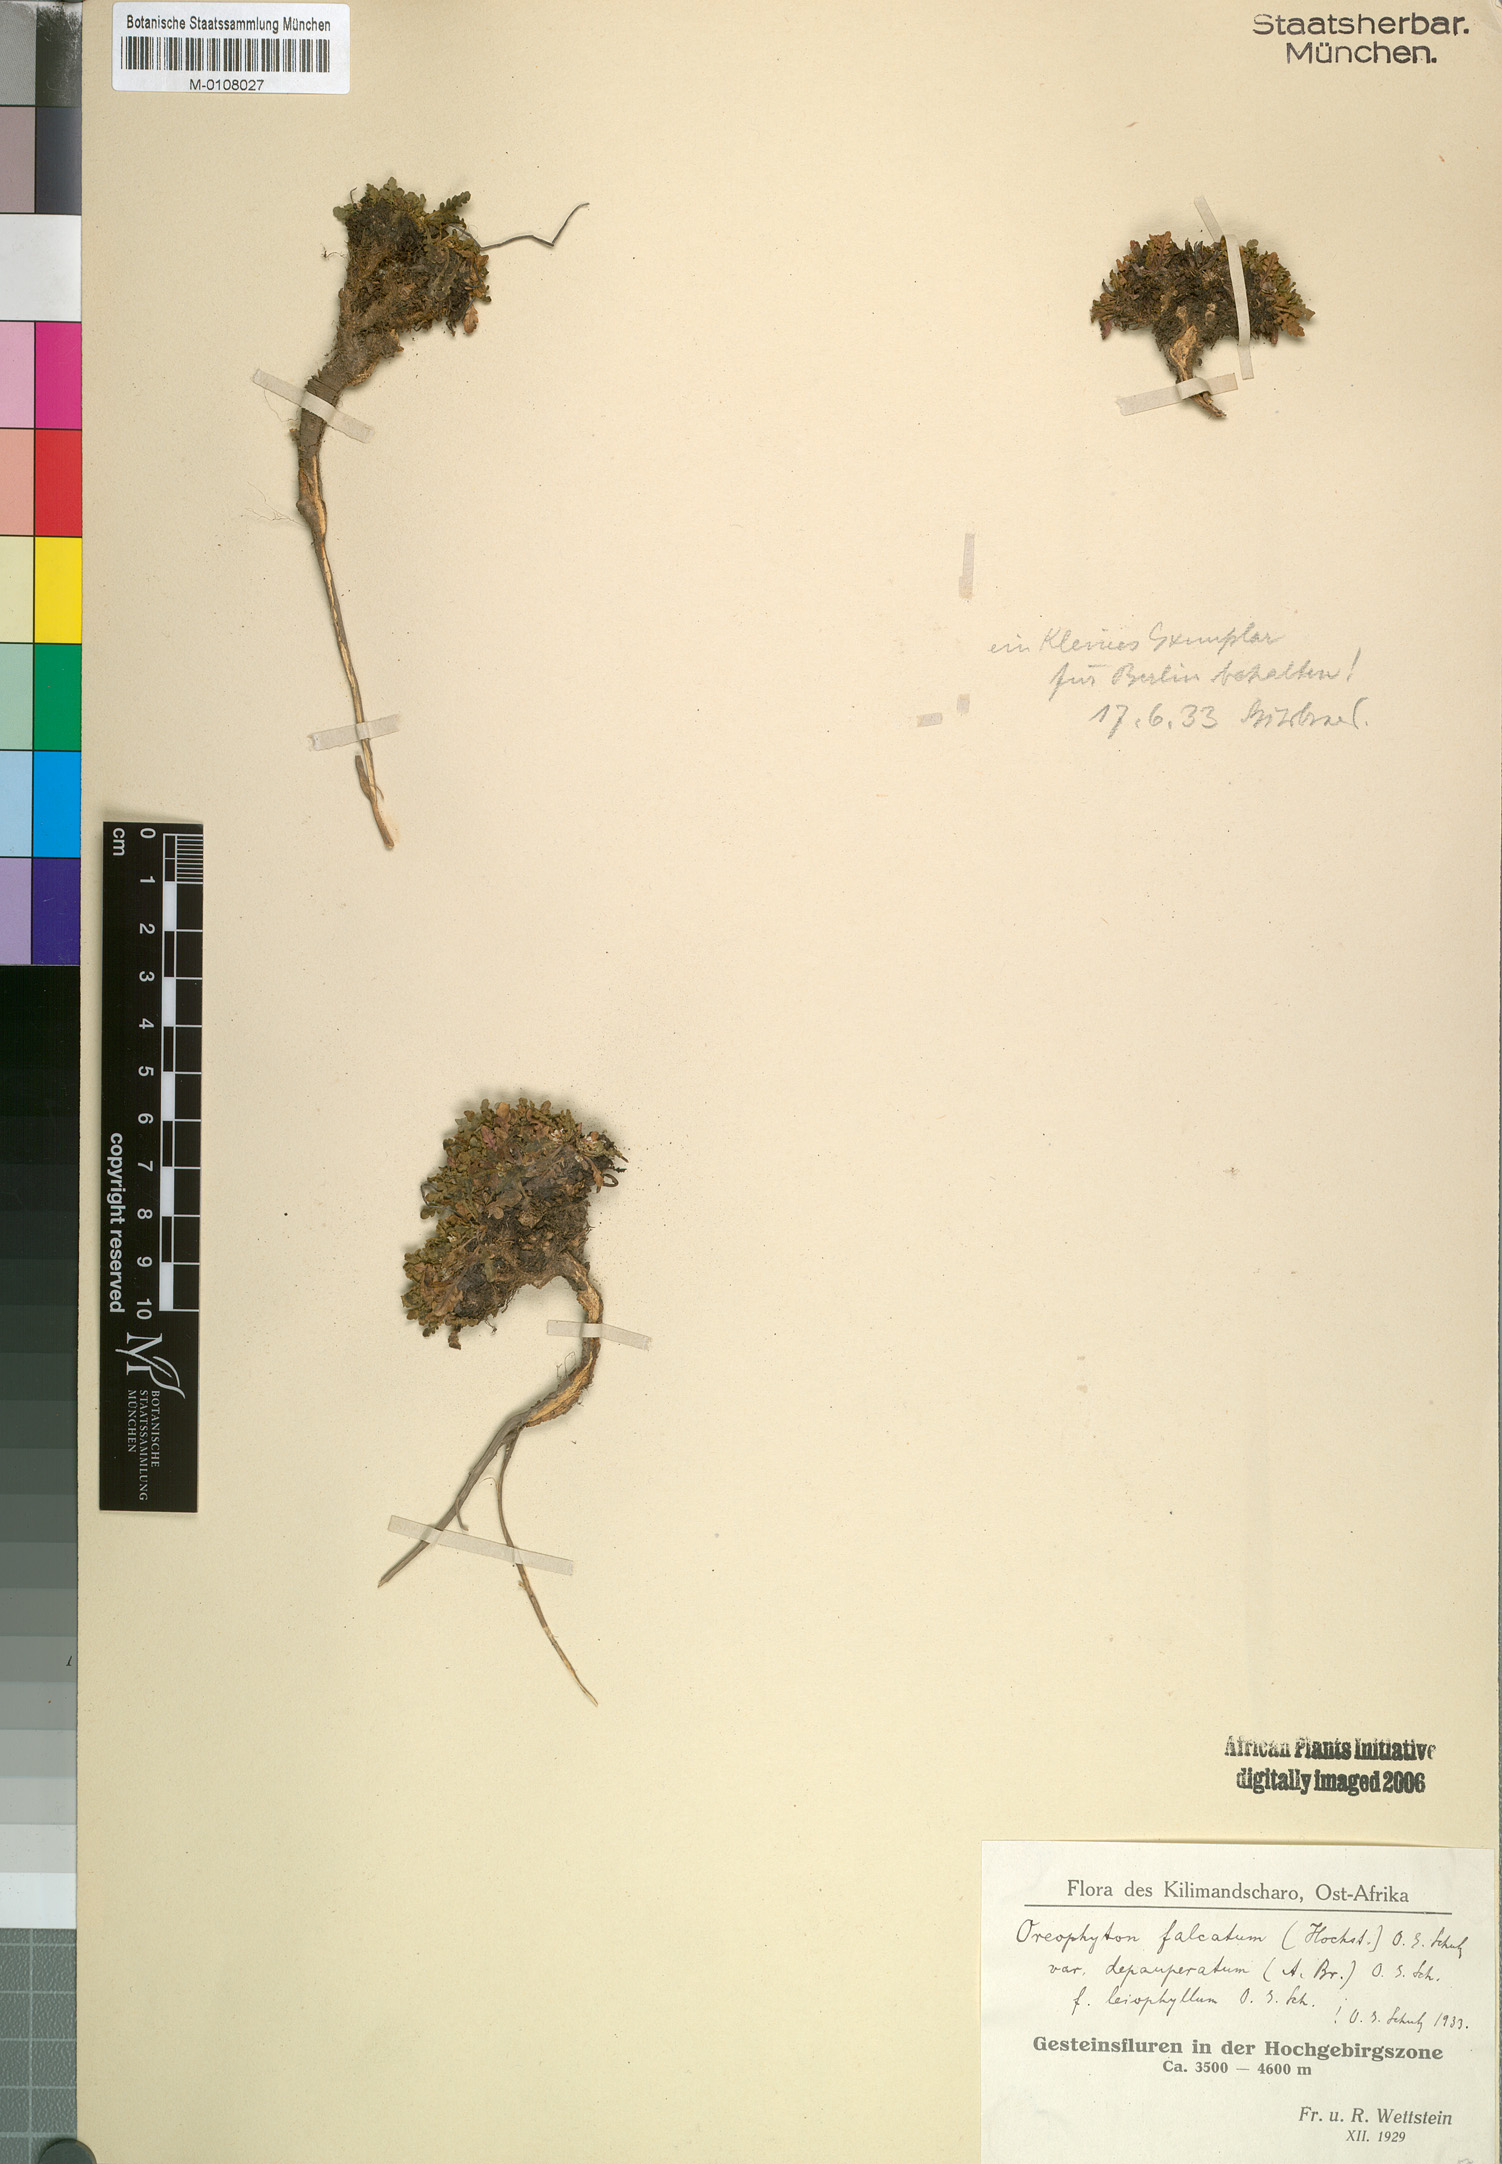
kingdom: Plantae
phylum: Tracheophyta
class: Magnoliopsida
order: Brassicales
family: Brassicaceae
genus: Oreophyton
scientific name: Oreophyton falcatum
